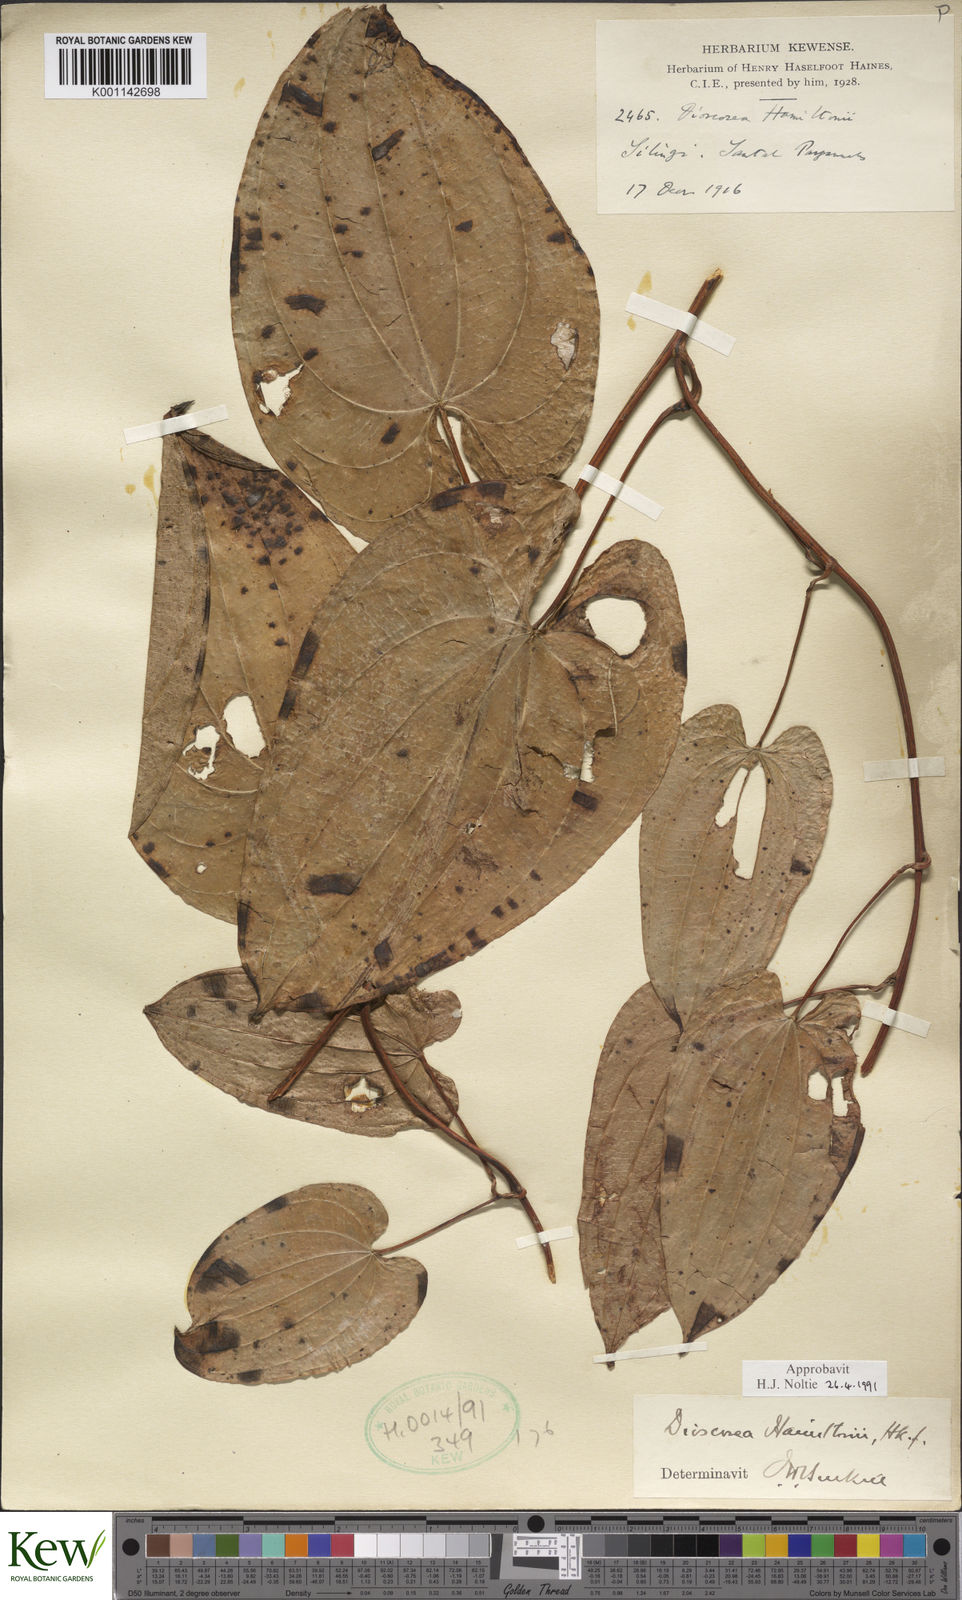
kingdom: Plantae
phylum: Tracheophyta
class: Liliopsida
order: Dioscoreales
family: Dioscoreaceae
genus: Dioscorea
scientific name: Dioscorea hamiltonii
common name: Mountain yam
